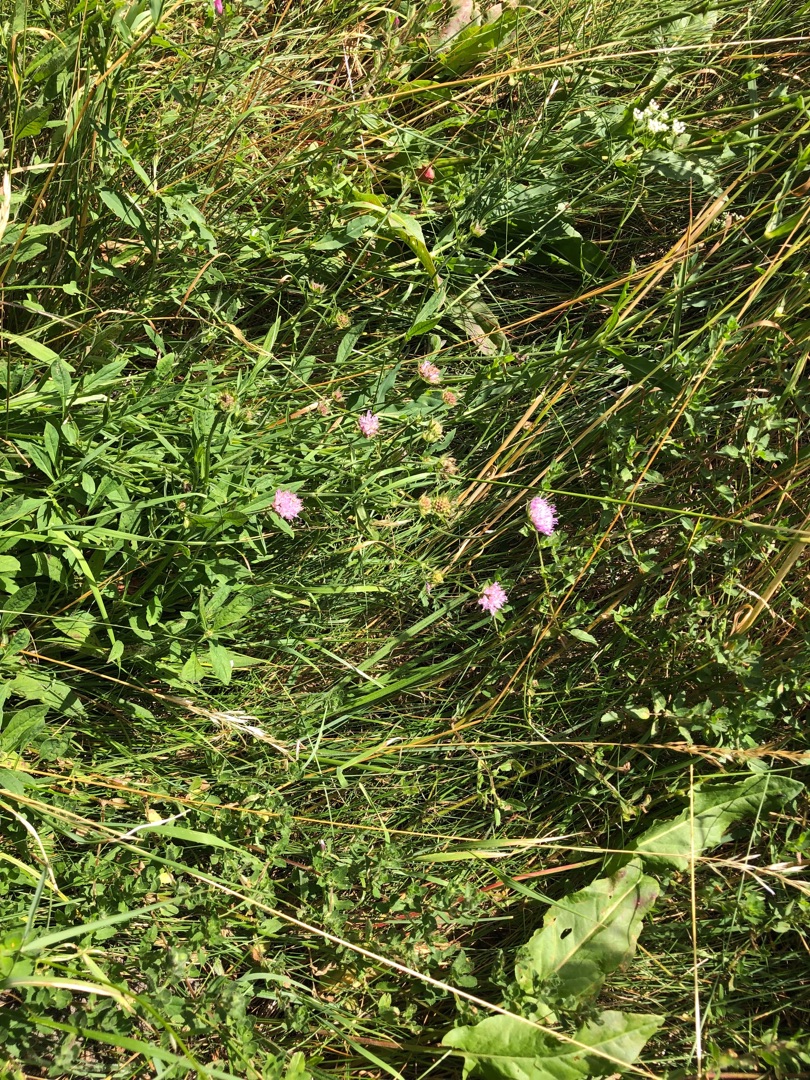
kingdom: Plantae
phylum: Tracheophyta
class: Magnoliopsida
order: Dipsacales
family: Caprifoliaceae
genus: Knautia
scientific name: Knautia arvensis
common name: Blåhat
